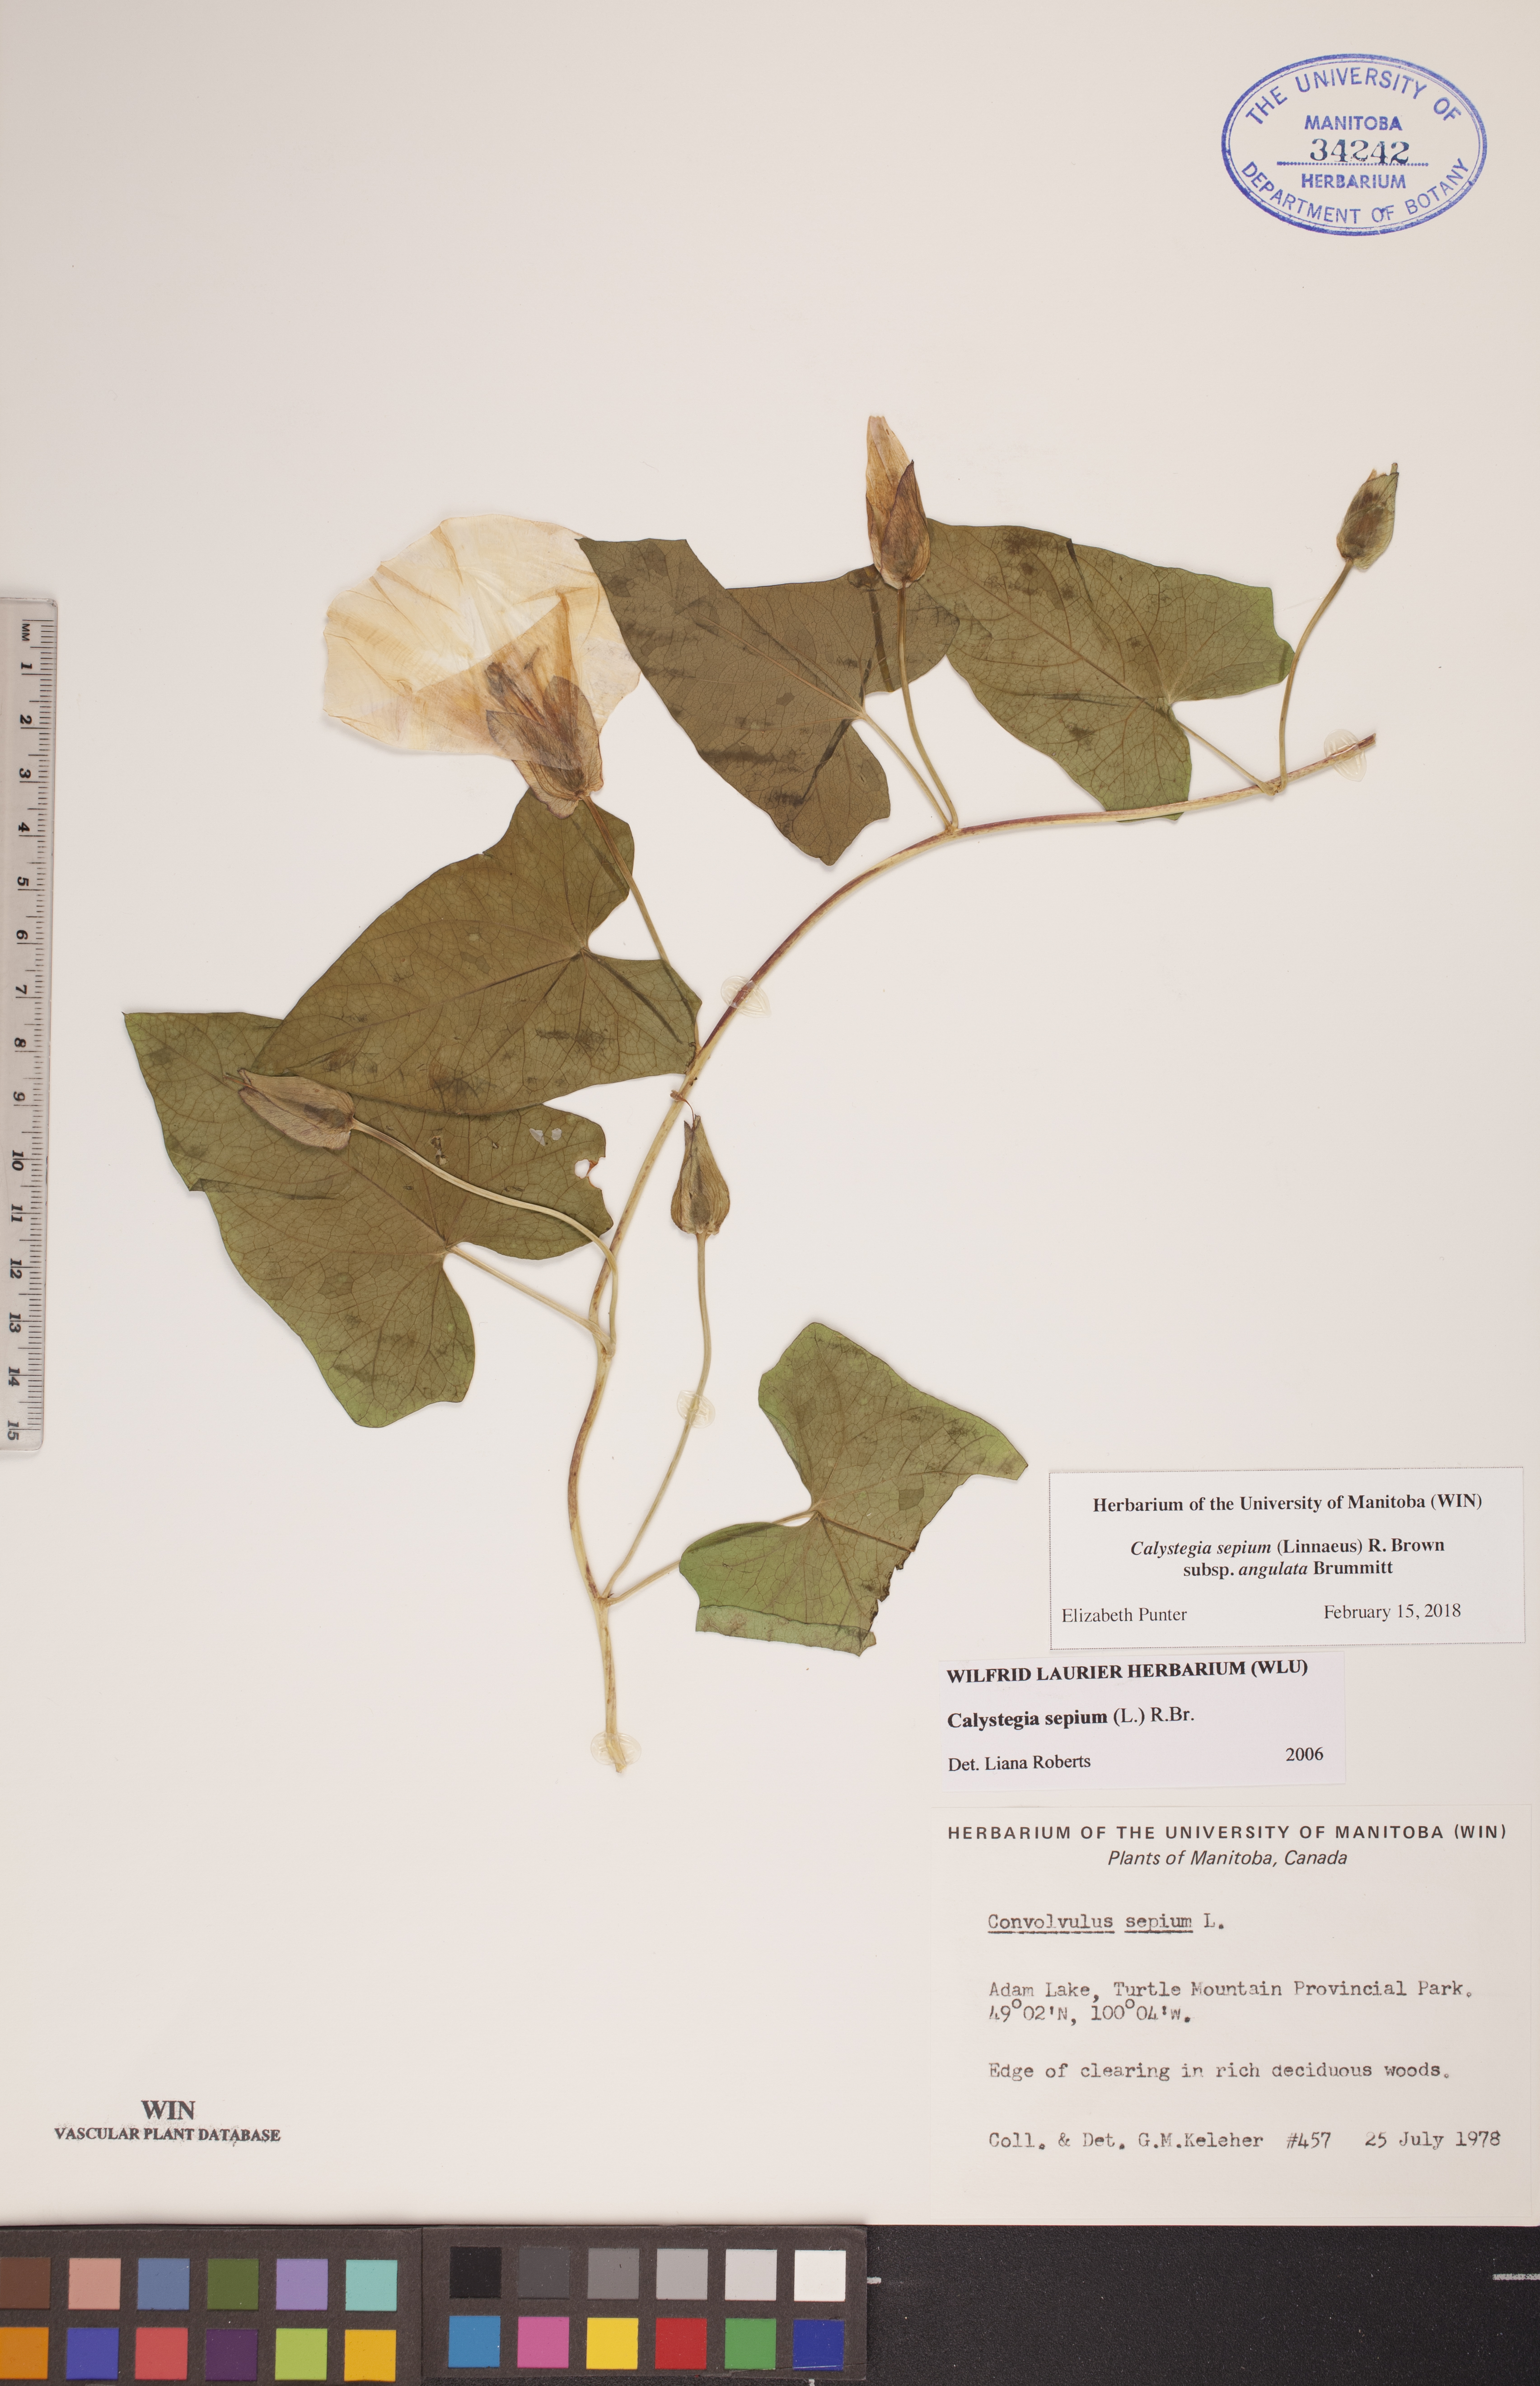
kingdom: Plantae
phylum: Tracheophyta
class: Magnoliopsida
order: Solanales
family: Convolvulaceae
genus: Calystegia
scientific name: Calystegia sepium
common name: Hedge bindweed
